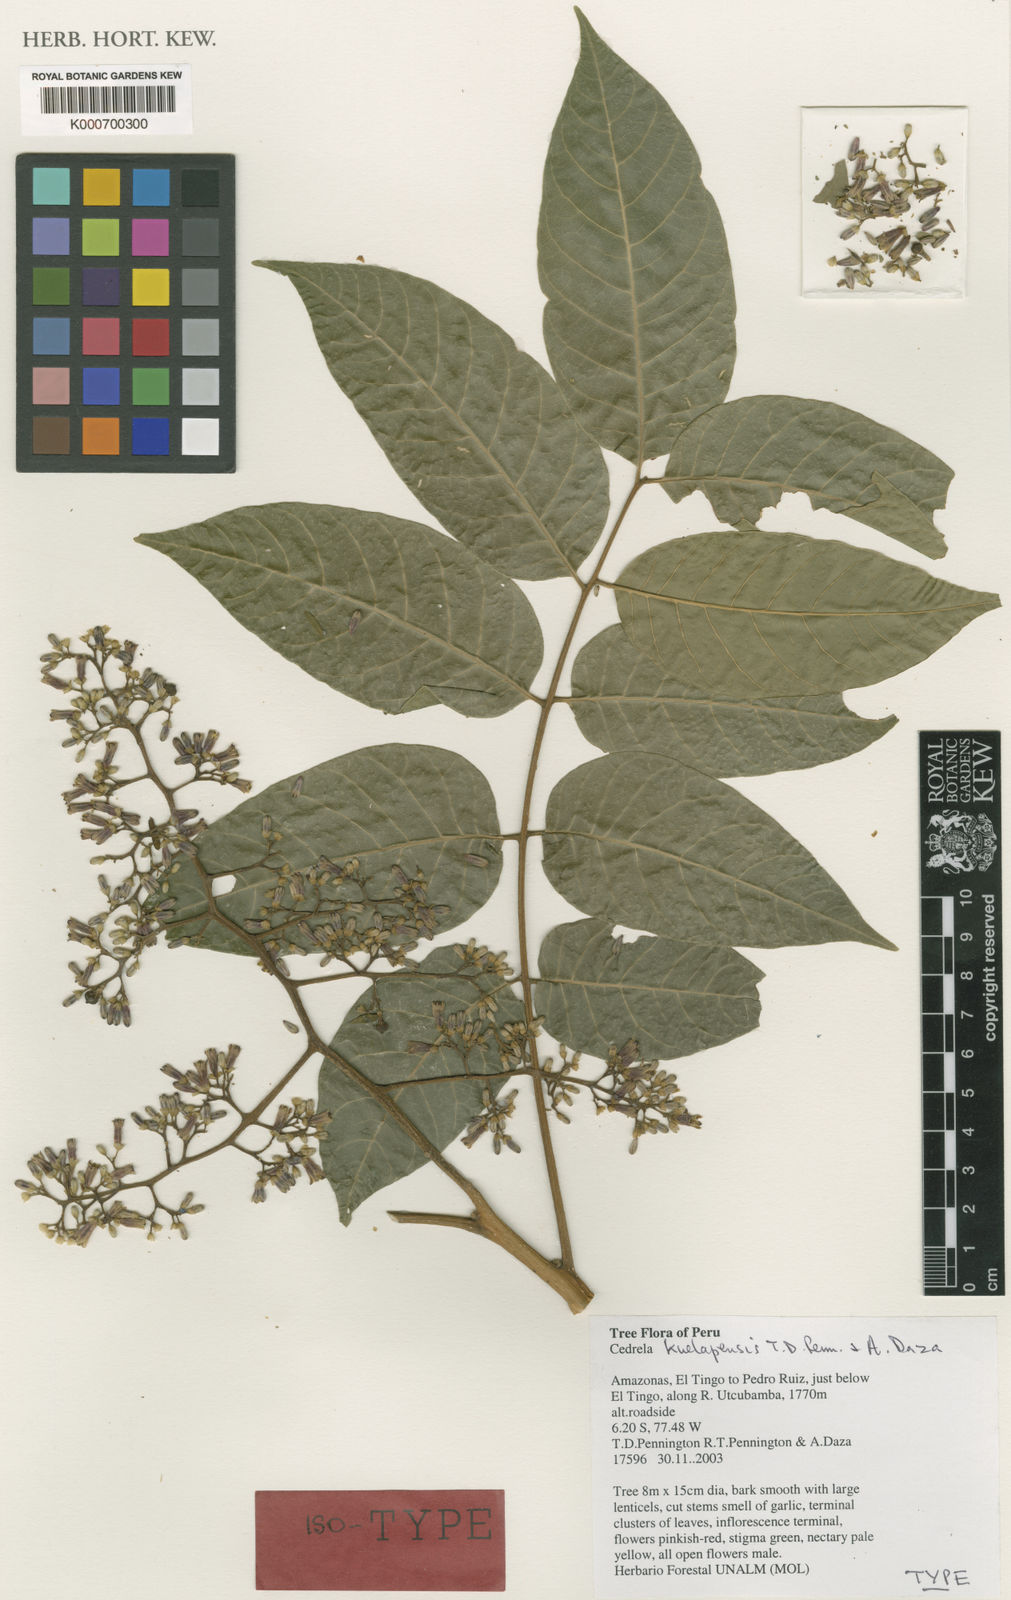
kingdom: Plantae
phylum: Tracheophyta
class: Magnoliopsida
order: Sapindales
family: Meliaceae
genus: Cedrela
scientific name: Cedrela kuelapensis
